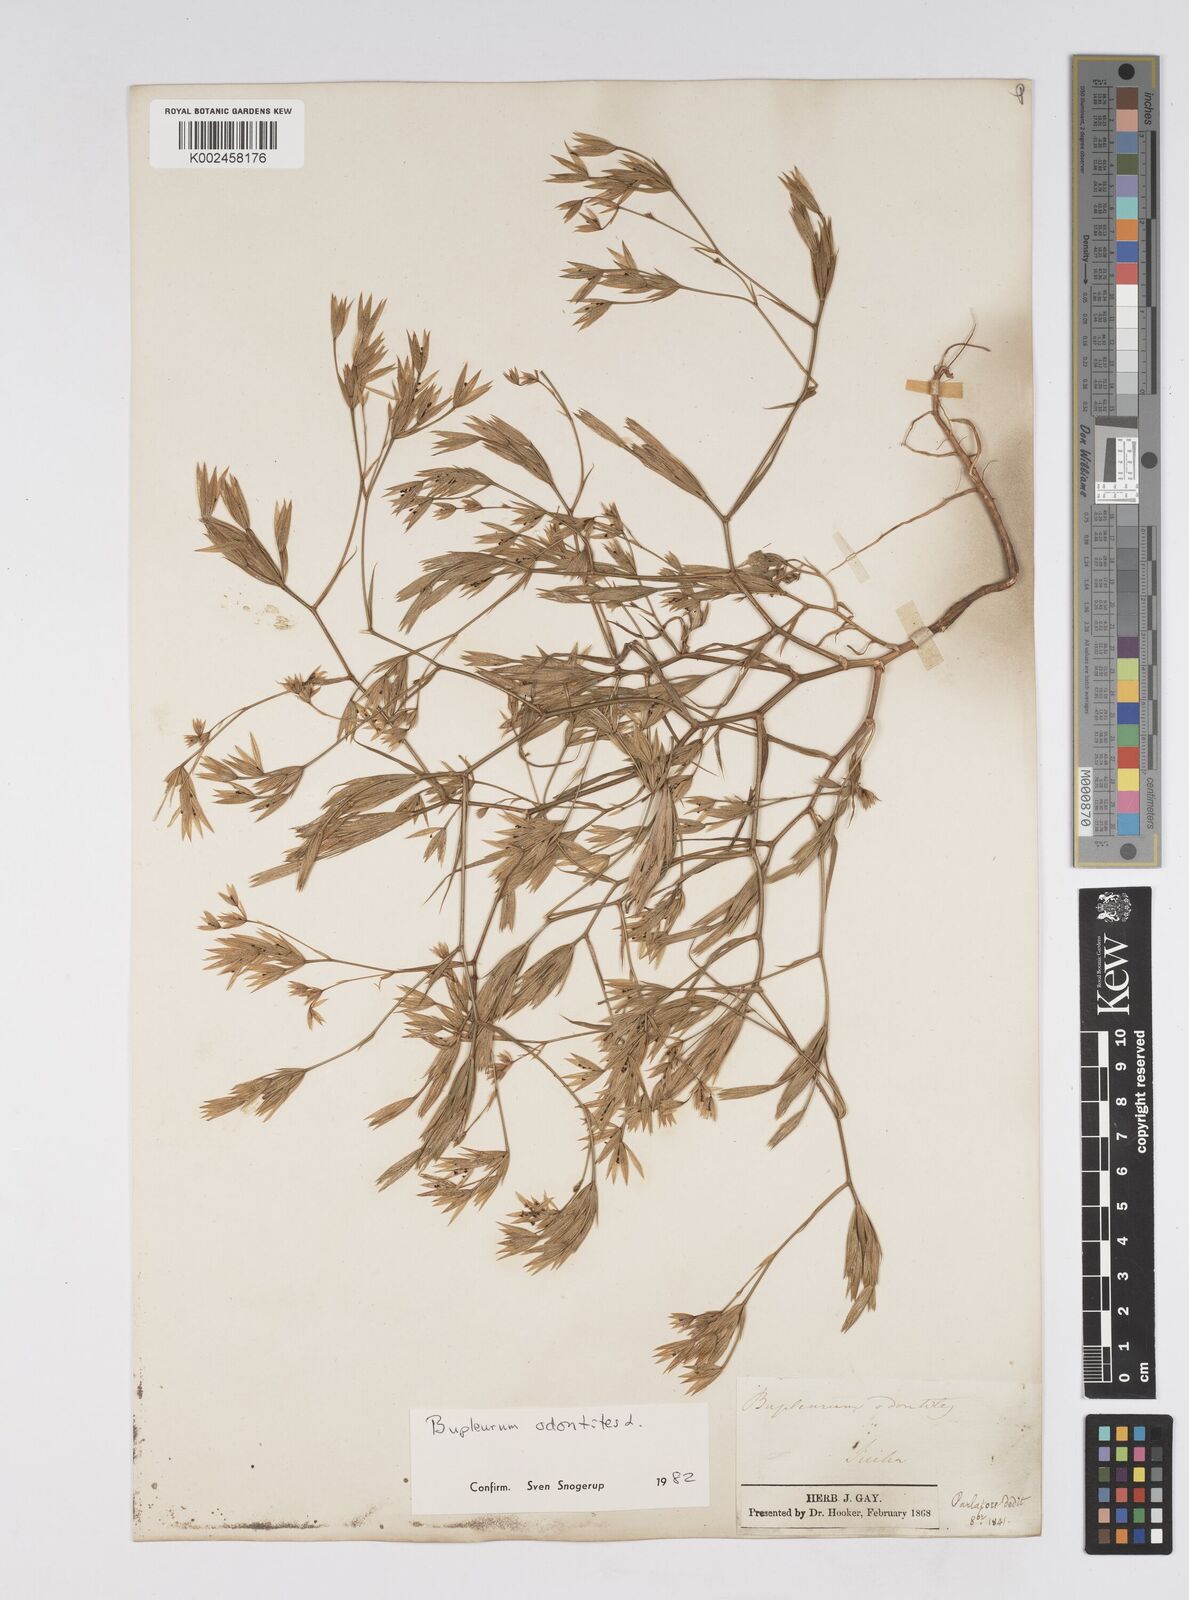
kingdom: Plantae
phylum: Tracheophyta
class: Magnoliopsida
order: Apiales
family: Apiaceae
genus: Bupleurum
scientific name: Bupleurum odontites
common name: Narrowleaf thorow wax
